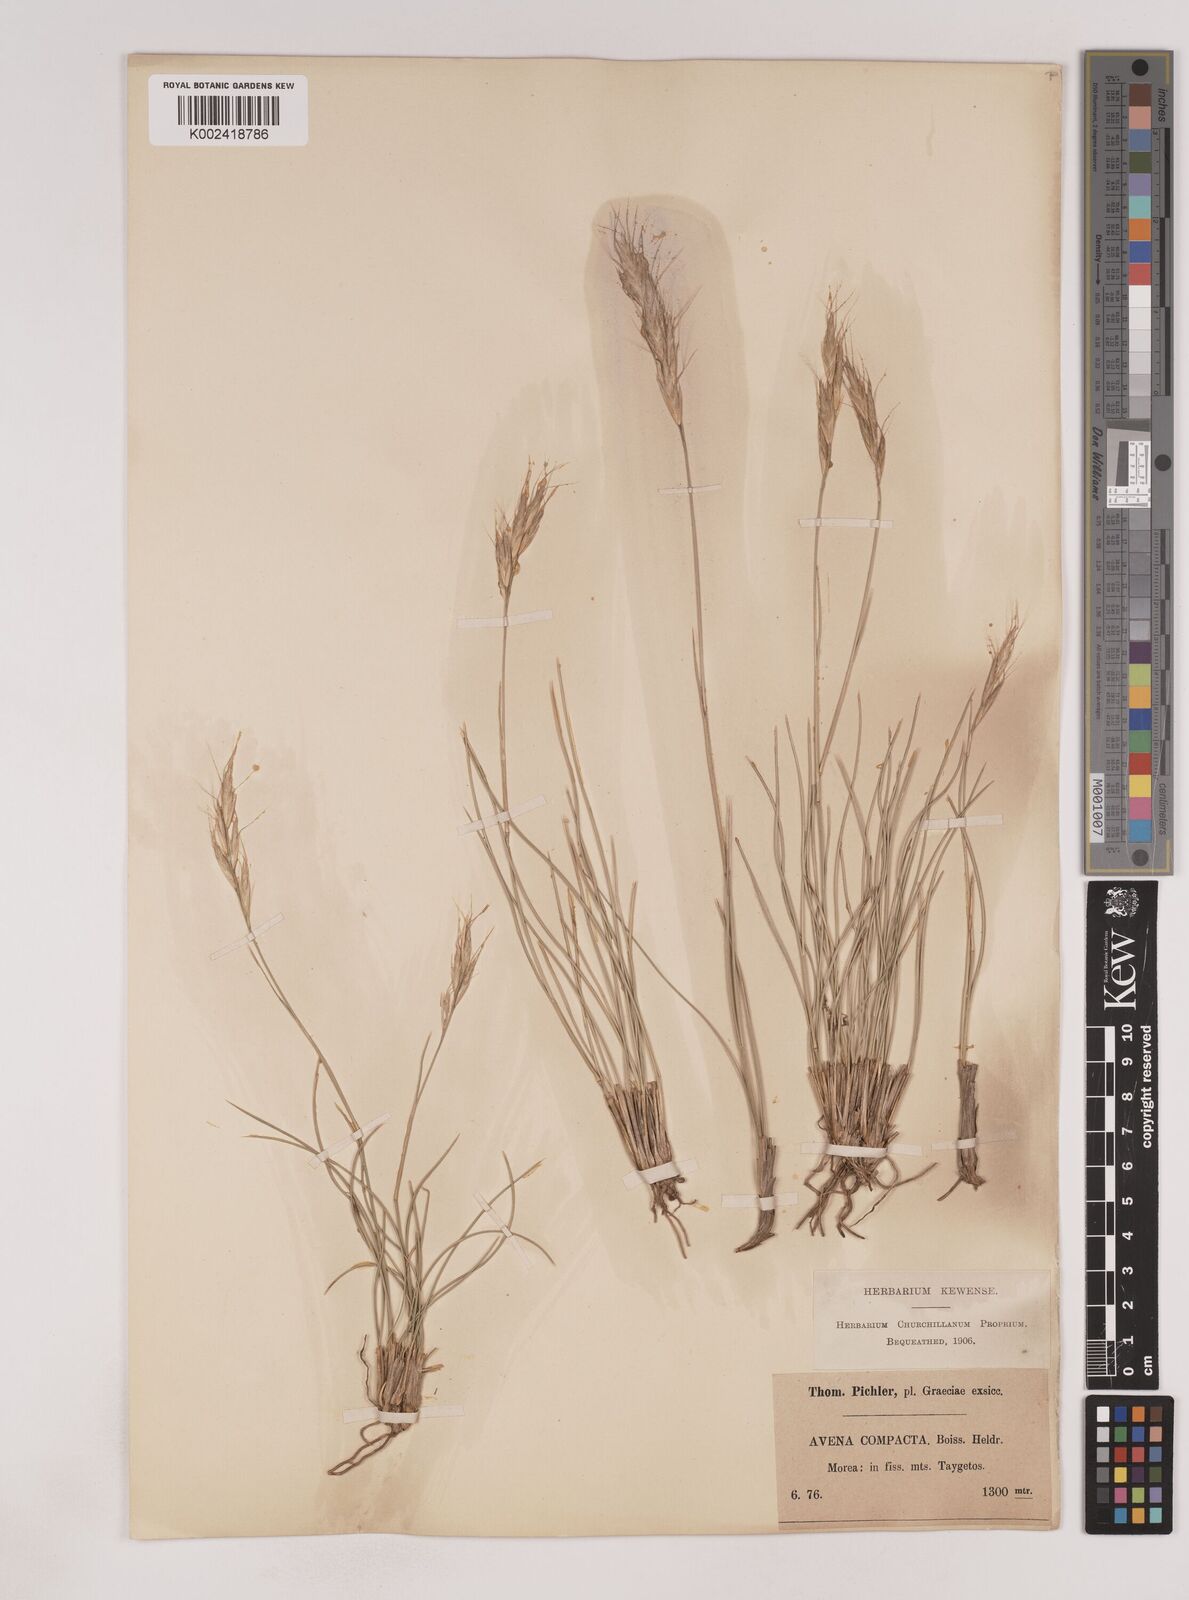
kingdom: Plantae
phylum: Tracheophyta
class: Liliopsida
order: Poales
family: Poaceae
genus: Danthoniastrum
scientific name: Danthoniastrum compactum
